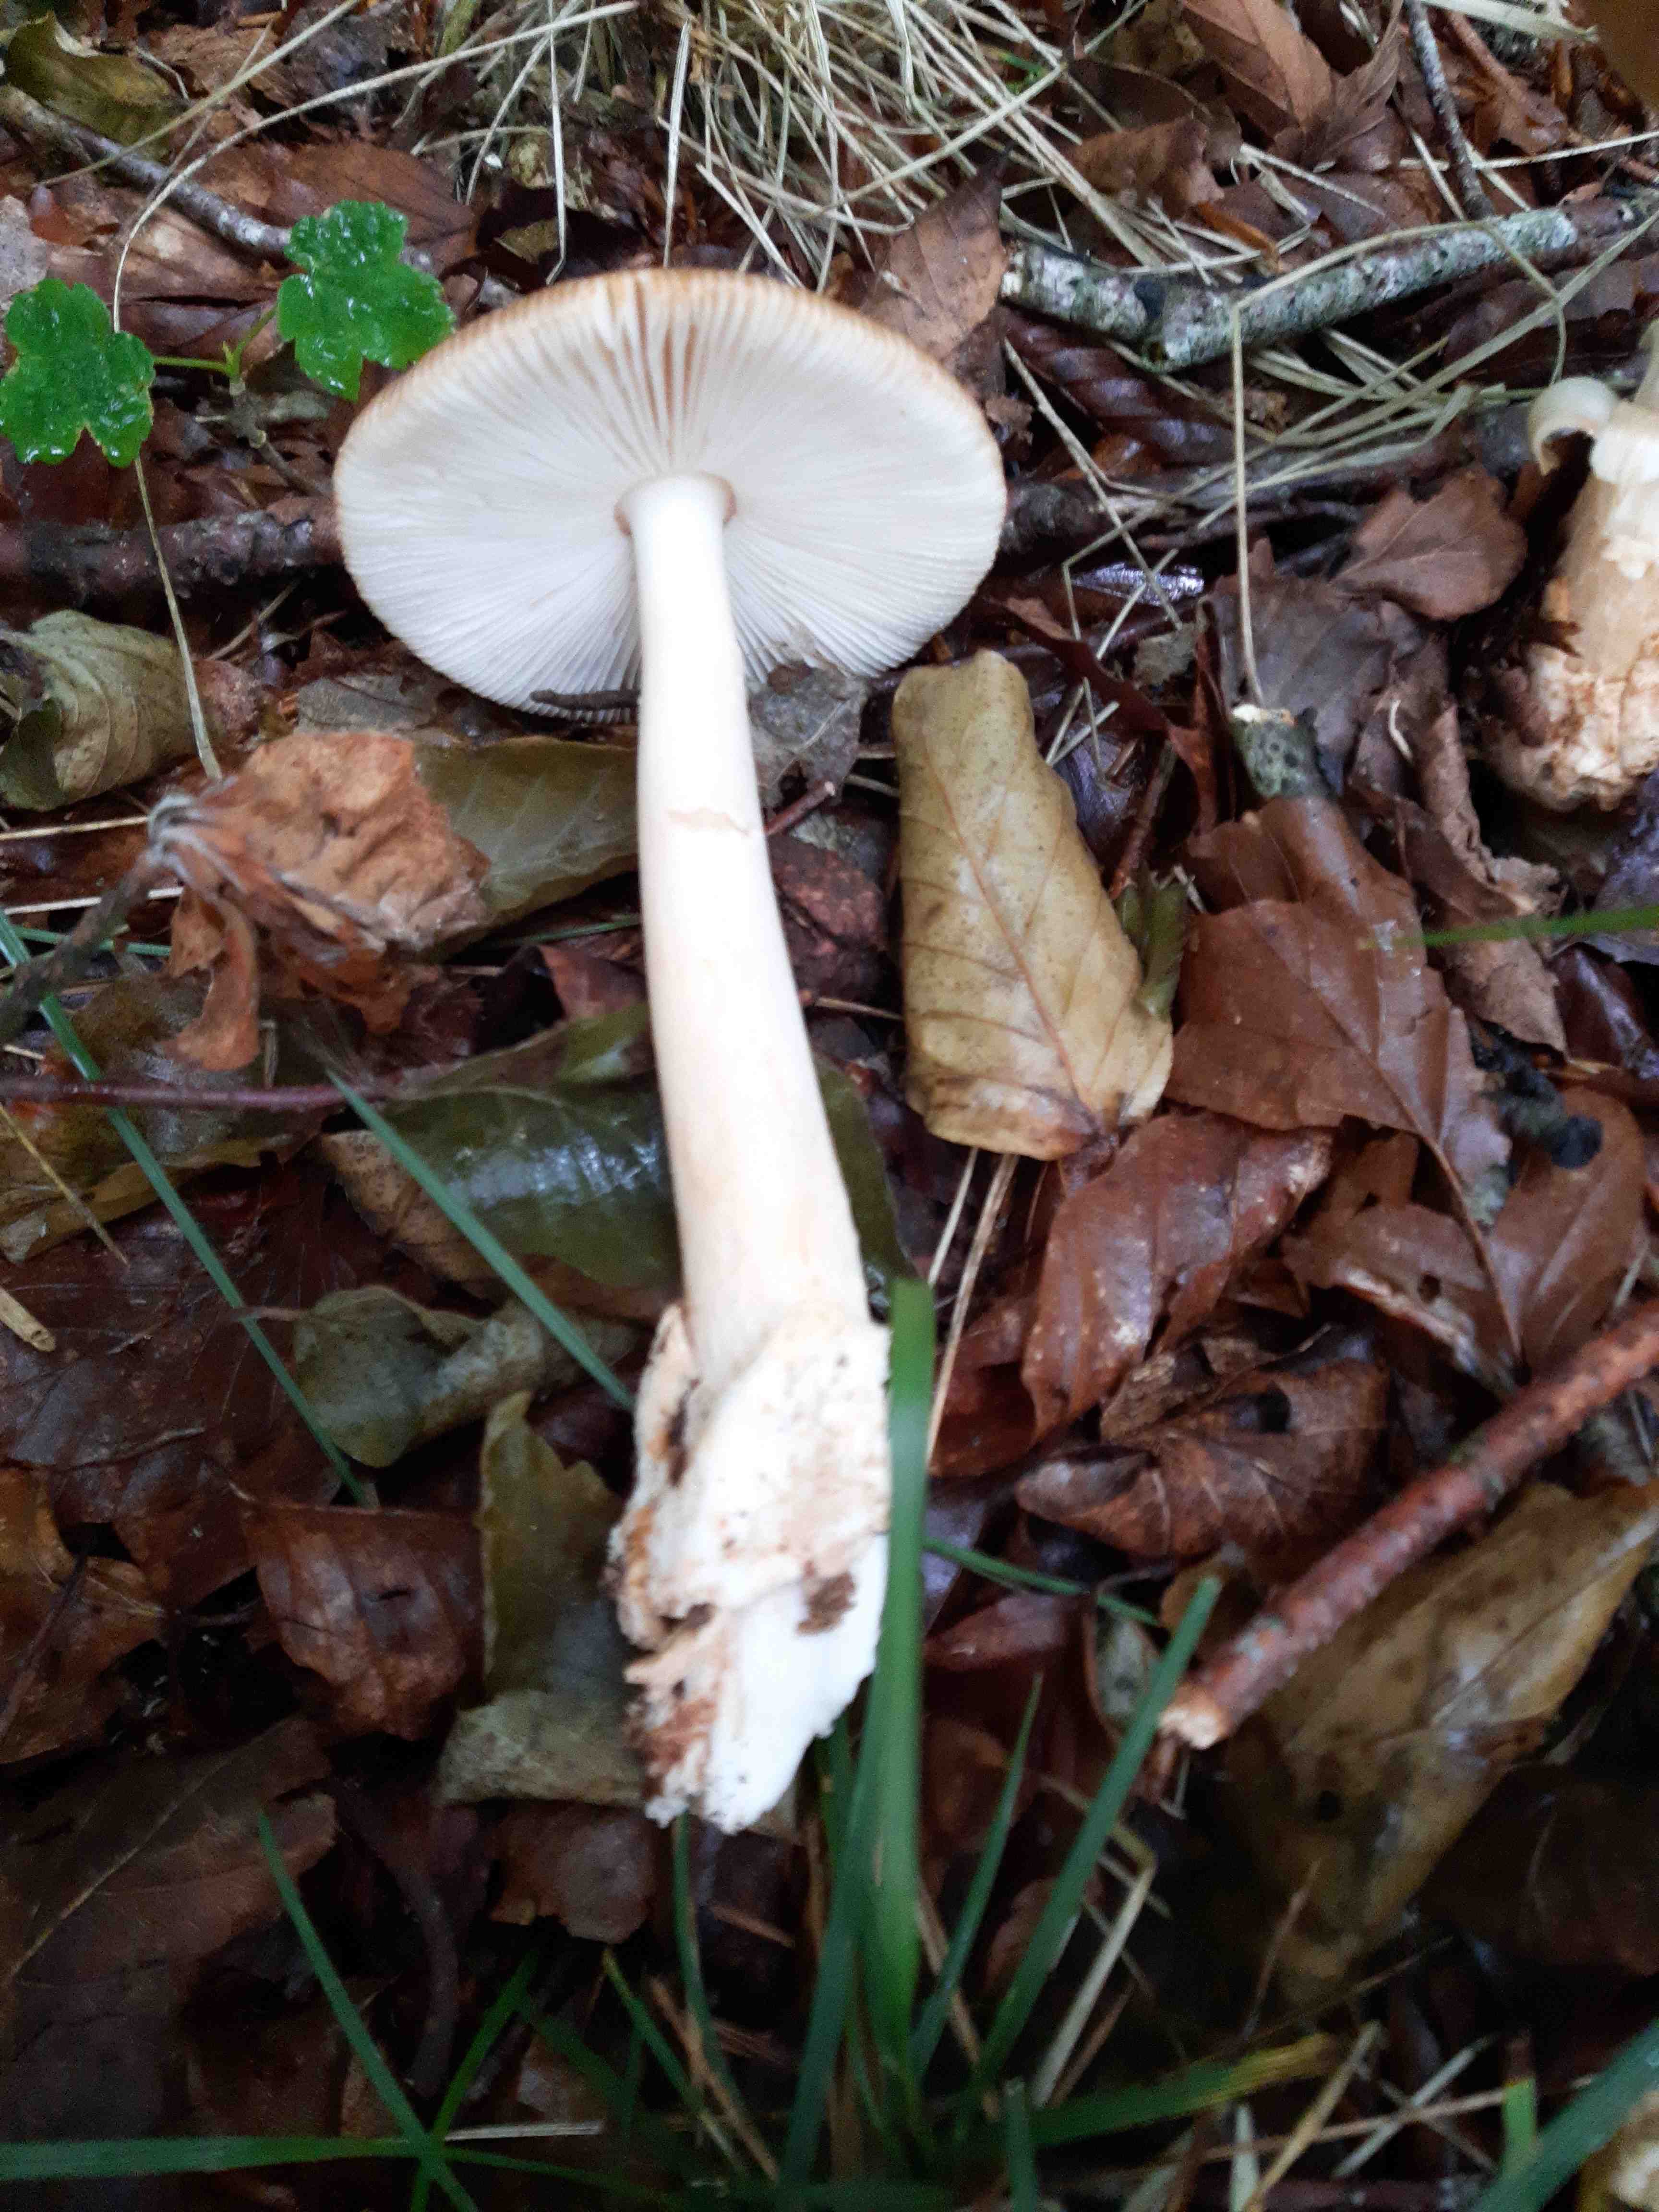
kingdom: Fungi
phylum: Basidiomycota
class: Agaricomycetes
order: Agaricales
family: Amanitaceae
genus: Amanita
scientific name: Amanita fulva
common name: brun kam-fluesvamp
